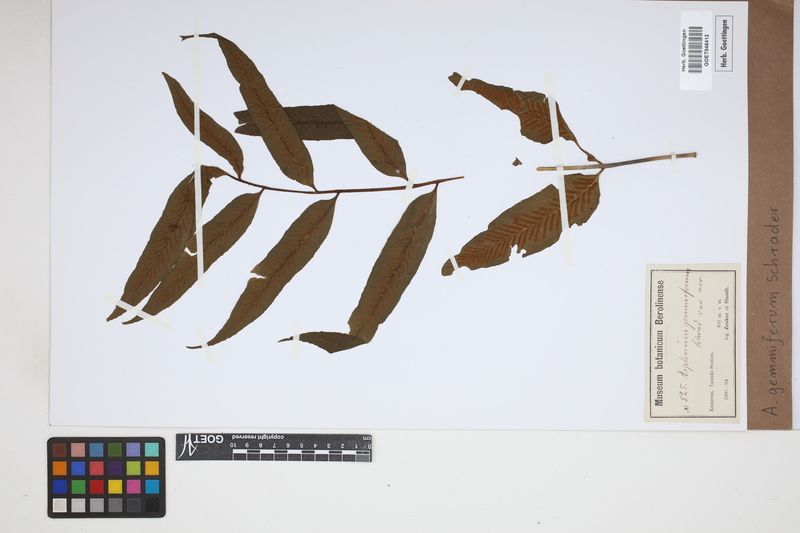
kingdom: Plantae
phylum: Tracheophyta
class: Polypodiopsida
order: Polypodiales
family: Aspleniaceae
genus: Asplenium
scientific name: Asplenium gemmiferum
